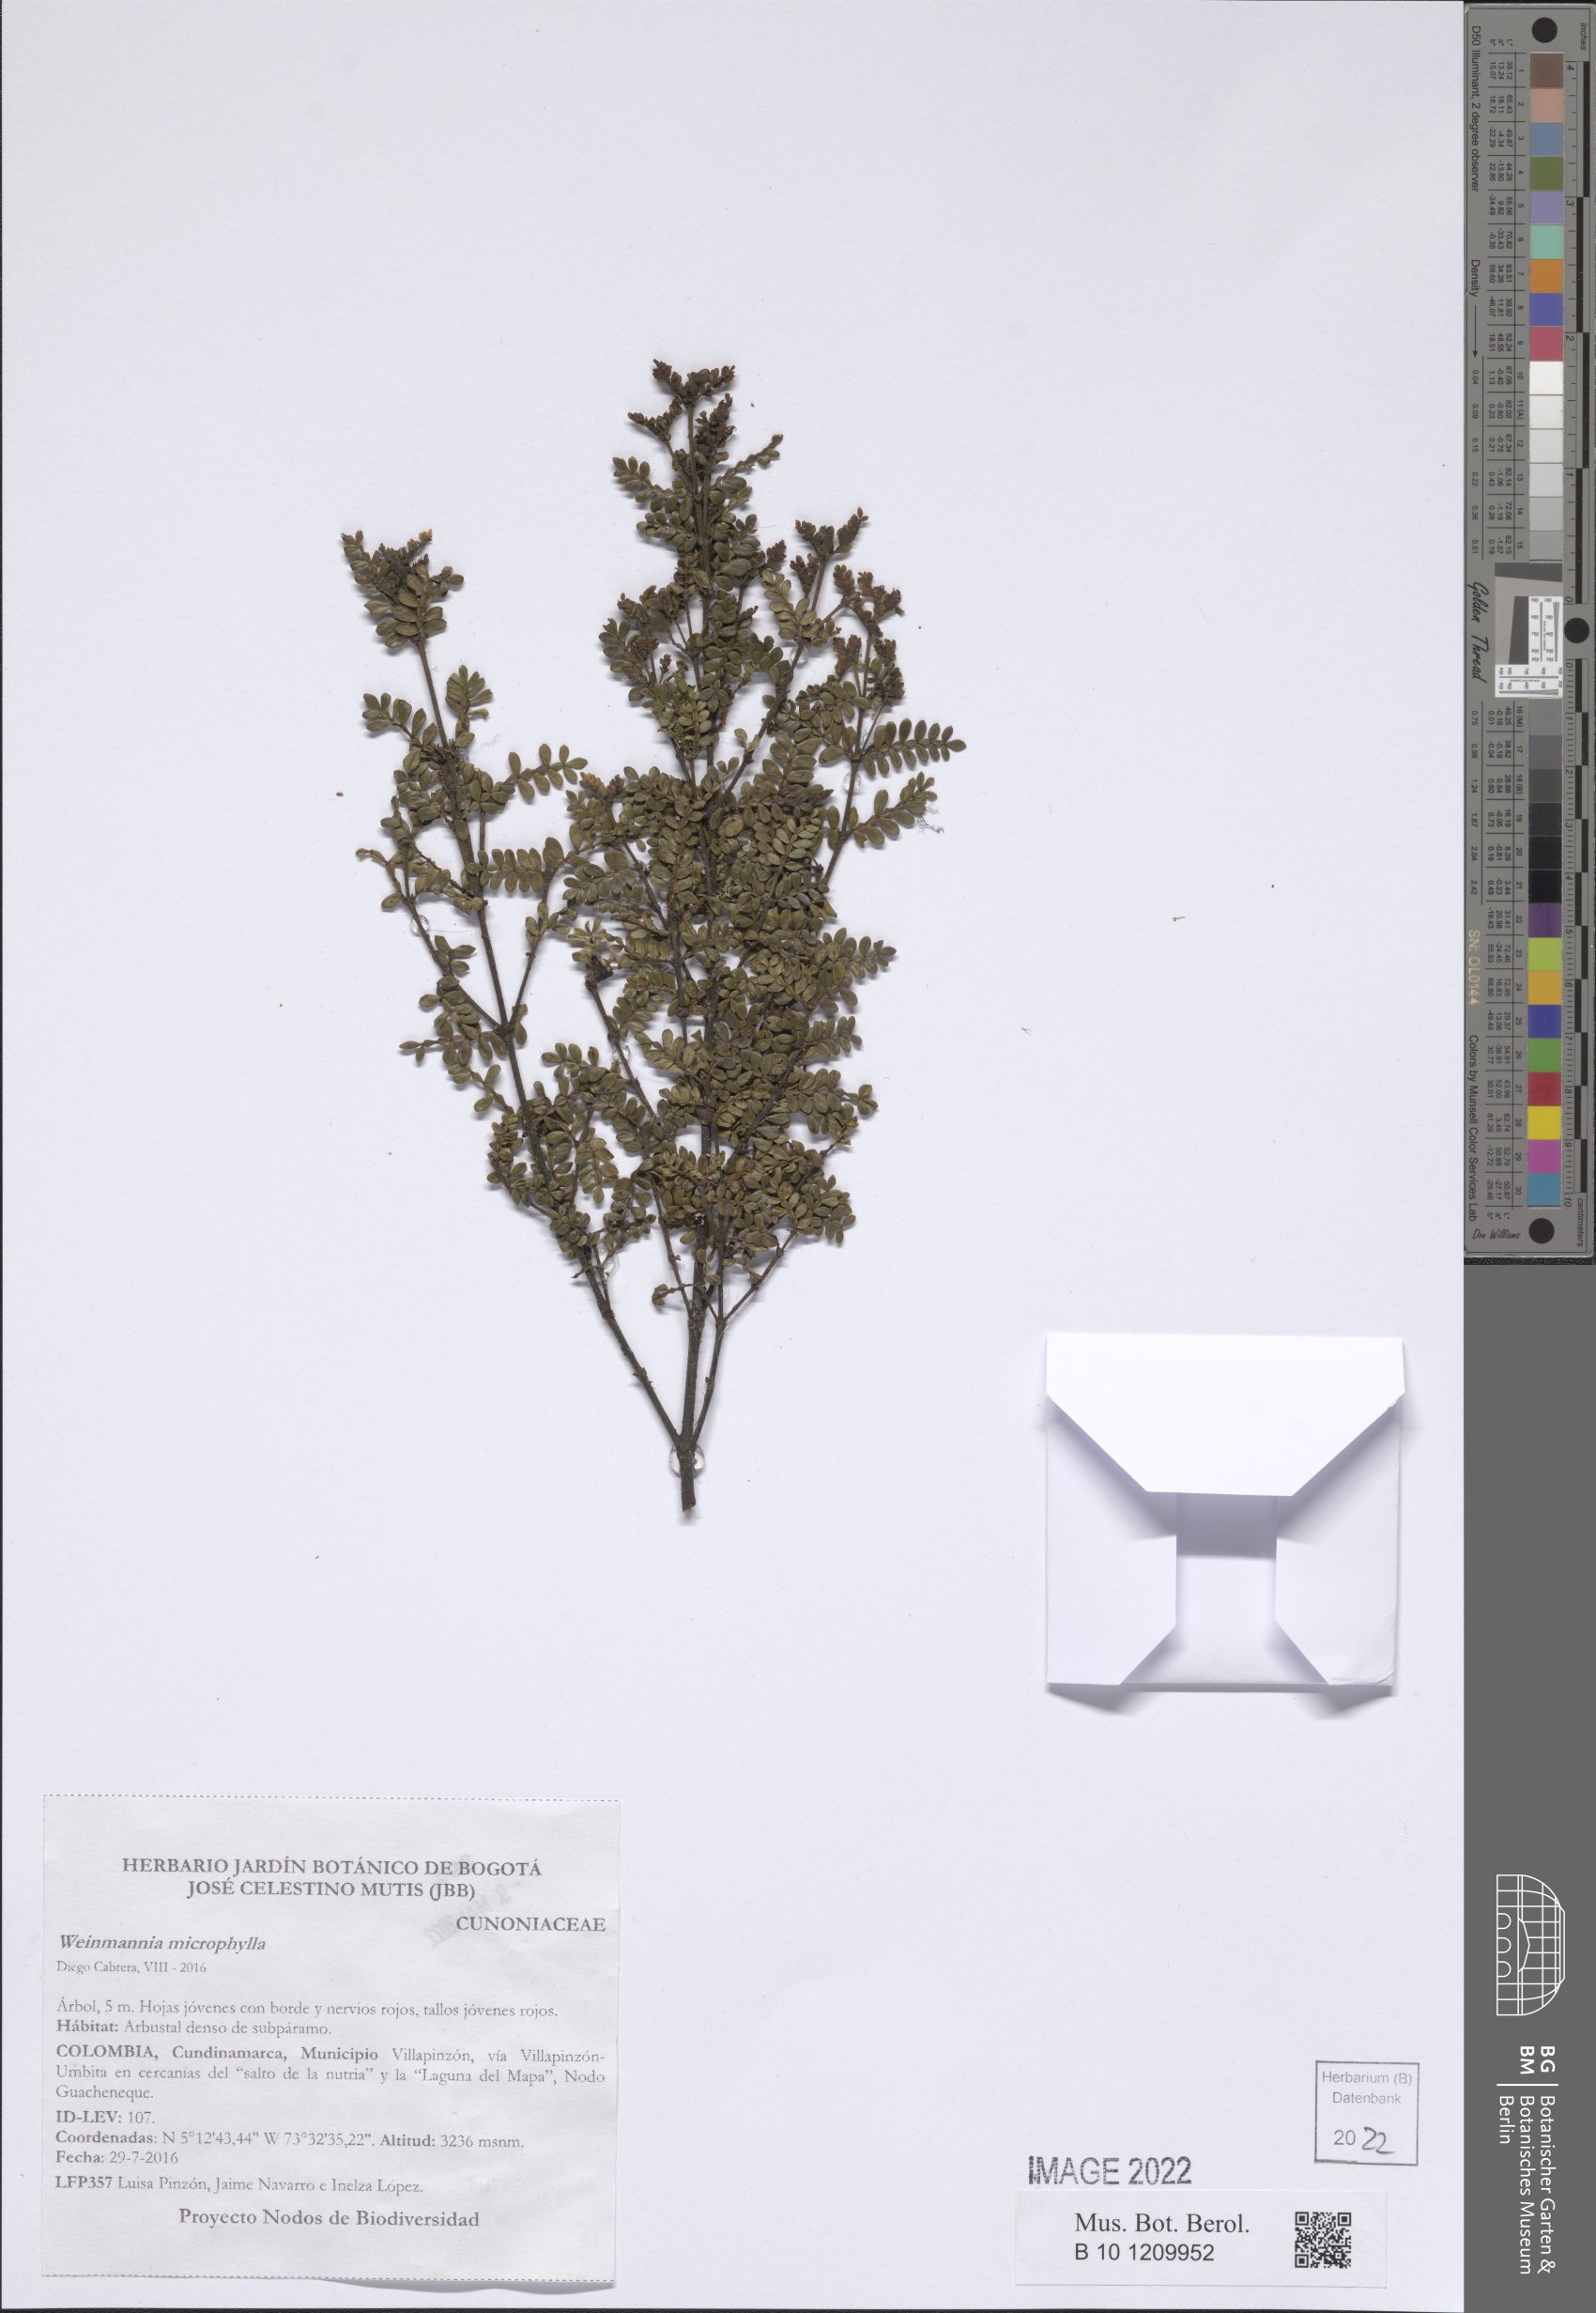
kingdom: Plantae
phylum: Tracheophyta
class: Magnoliopsida
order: Oxalidales
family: Cunoniaceae
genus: Weinmannia
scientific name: Weinmannia cochensis
